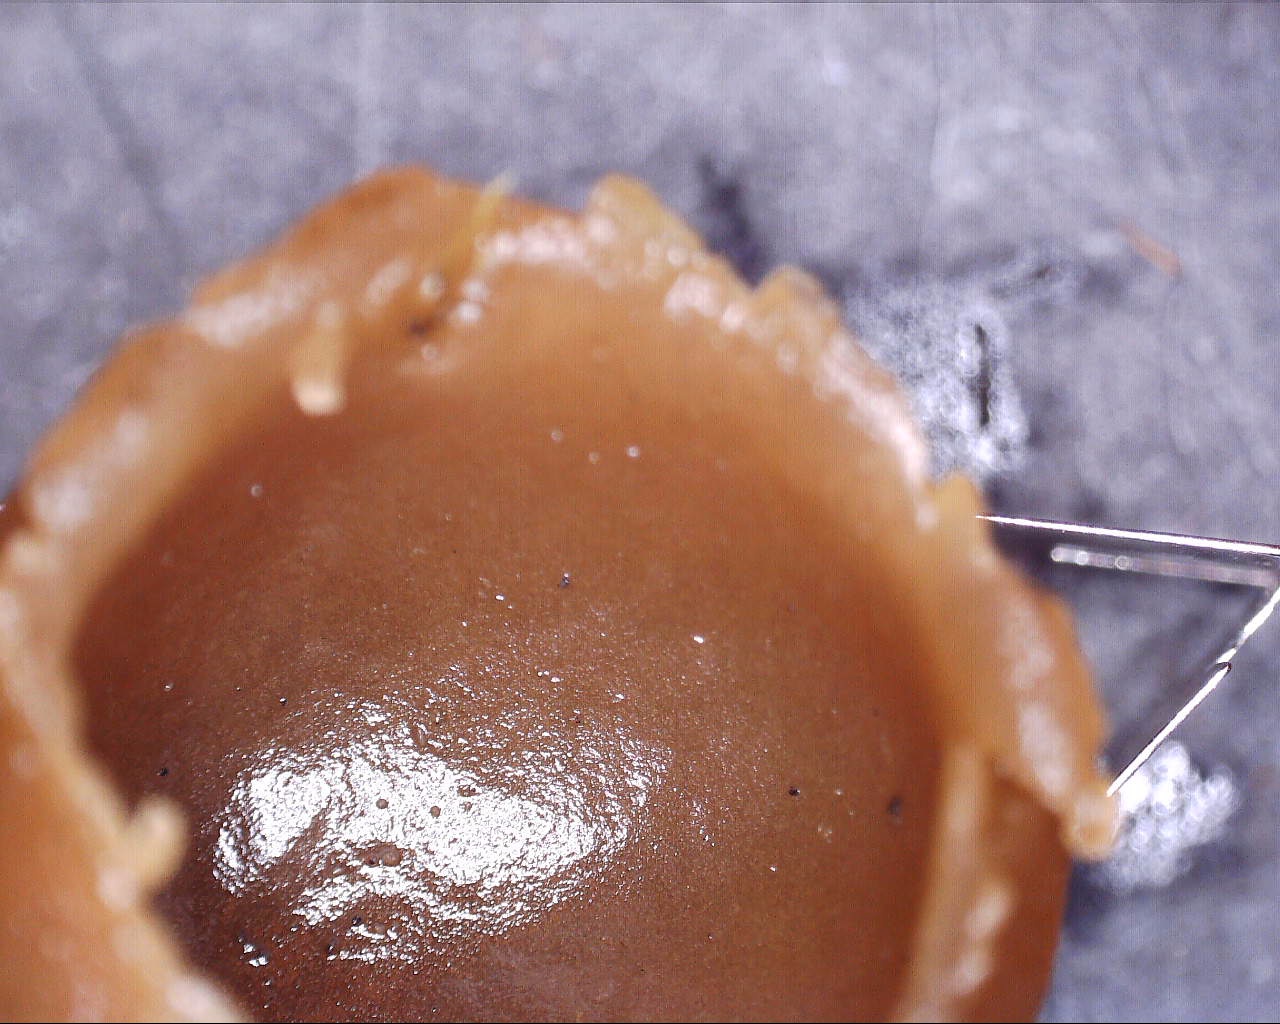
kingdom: Fungi
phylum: Ascomycota
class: Pezizomycetes
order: Pezizales
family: Pezizaceae
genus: Peziza
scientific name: Peziza fimeti
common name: møg-bægersvamp
